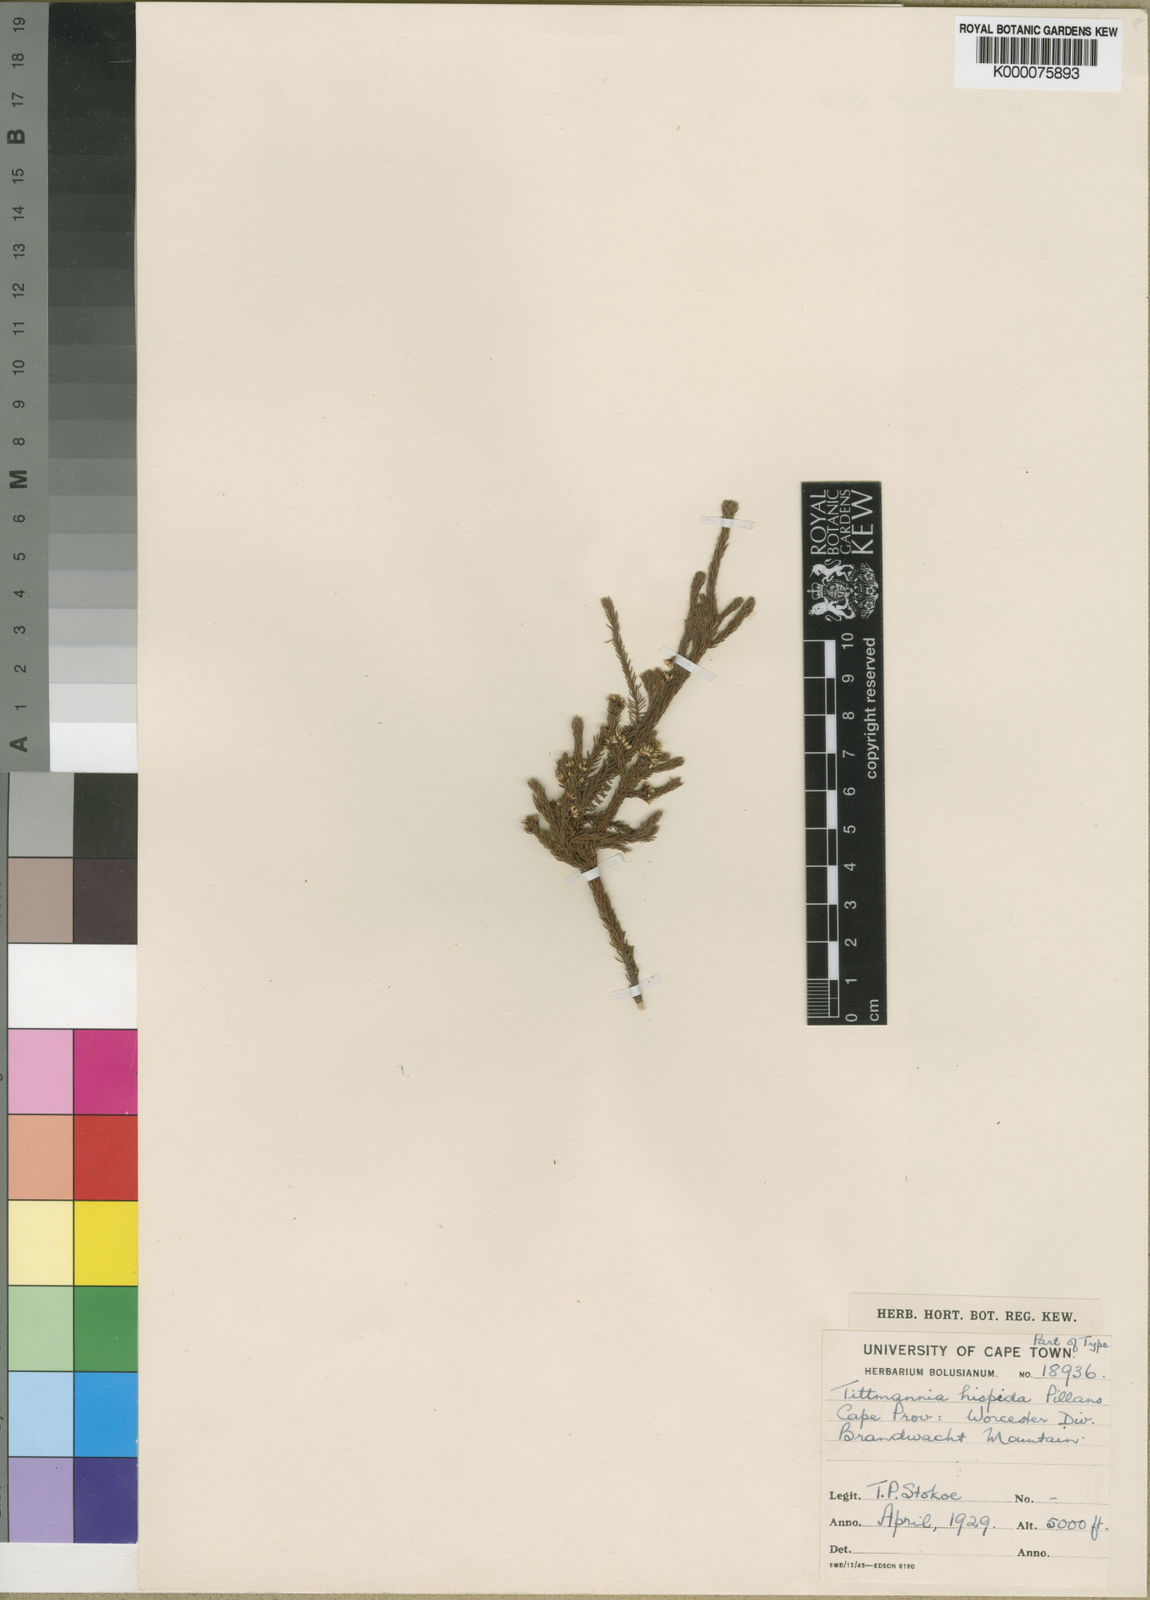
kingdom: Plantae
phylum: Tracheophyta
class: Magnoliopsida
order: Bruniales
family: Bruniaceae
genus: Audouinia
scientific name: Audouinia hispida
